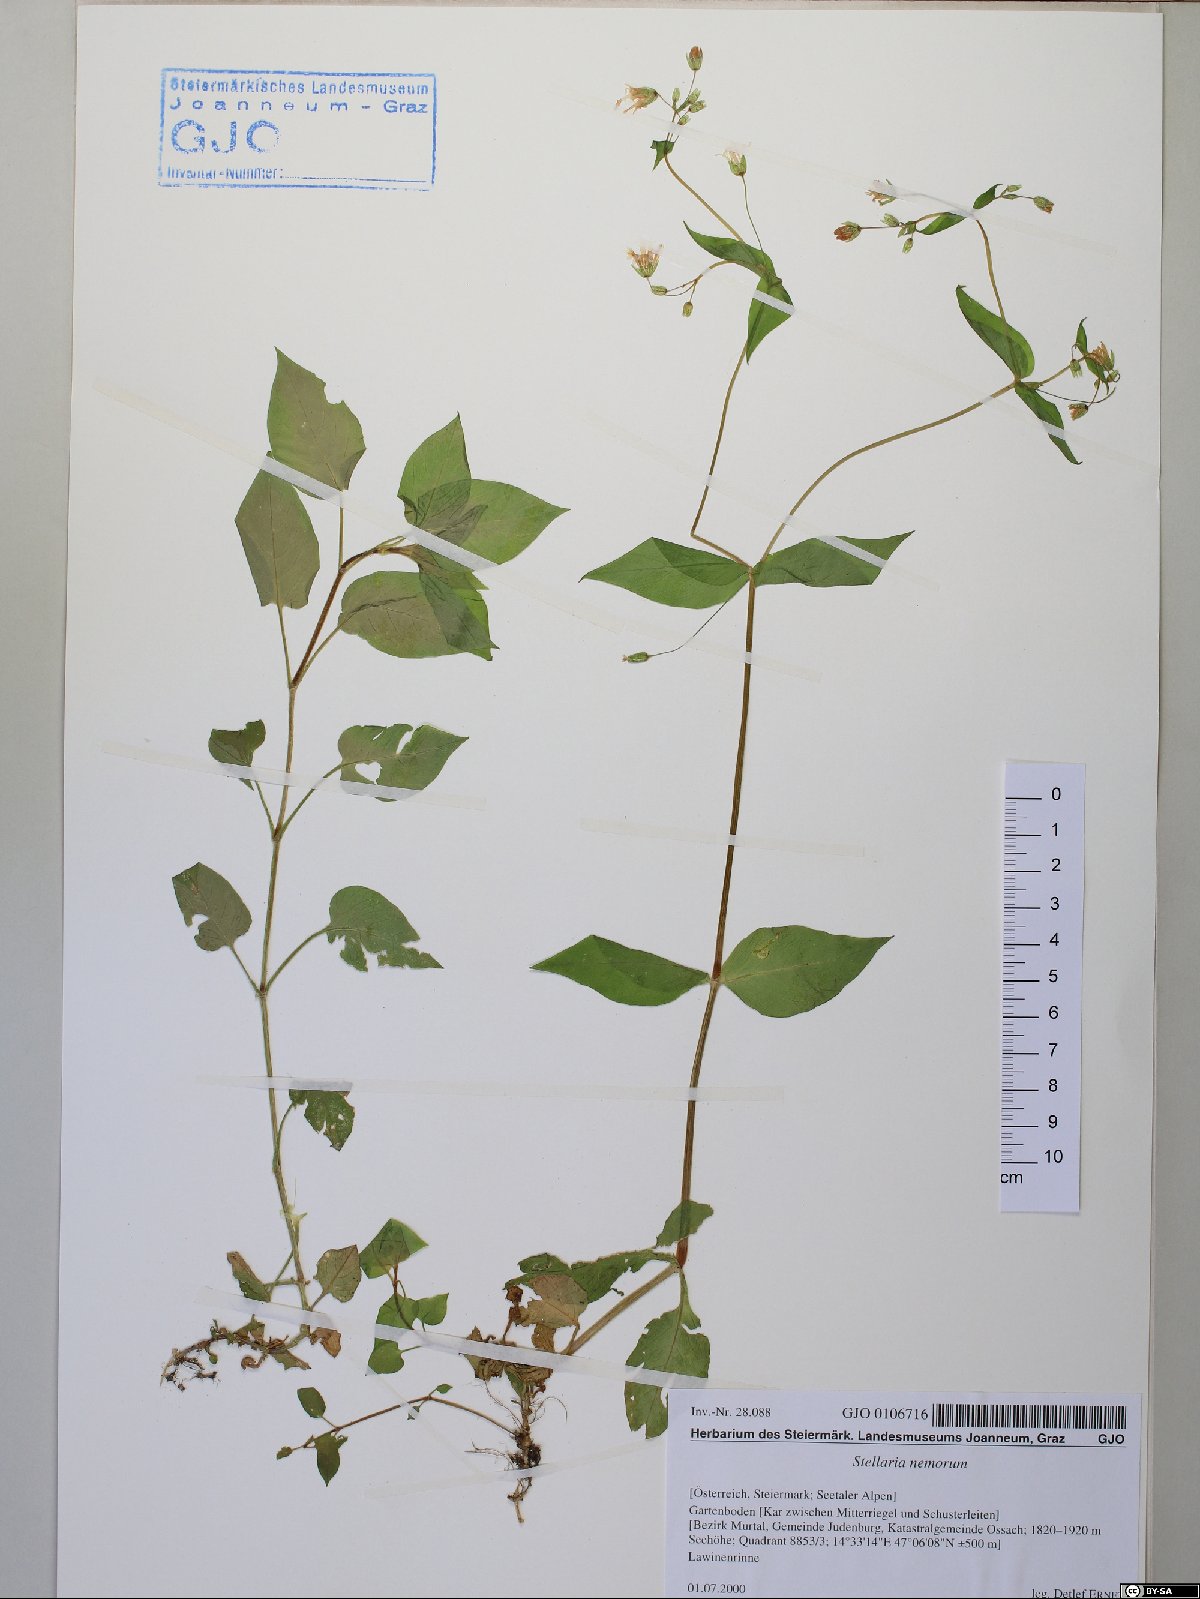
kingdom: Plantae
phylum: Tracheophyta
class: Magnoliopsida
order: Caryophyllales
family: Caryophyllaceae
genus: Stellaria
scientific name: Stellaria nemorum
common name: Wood stitchwort
